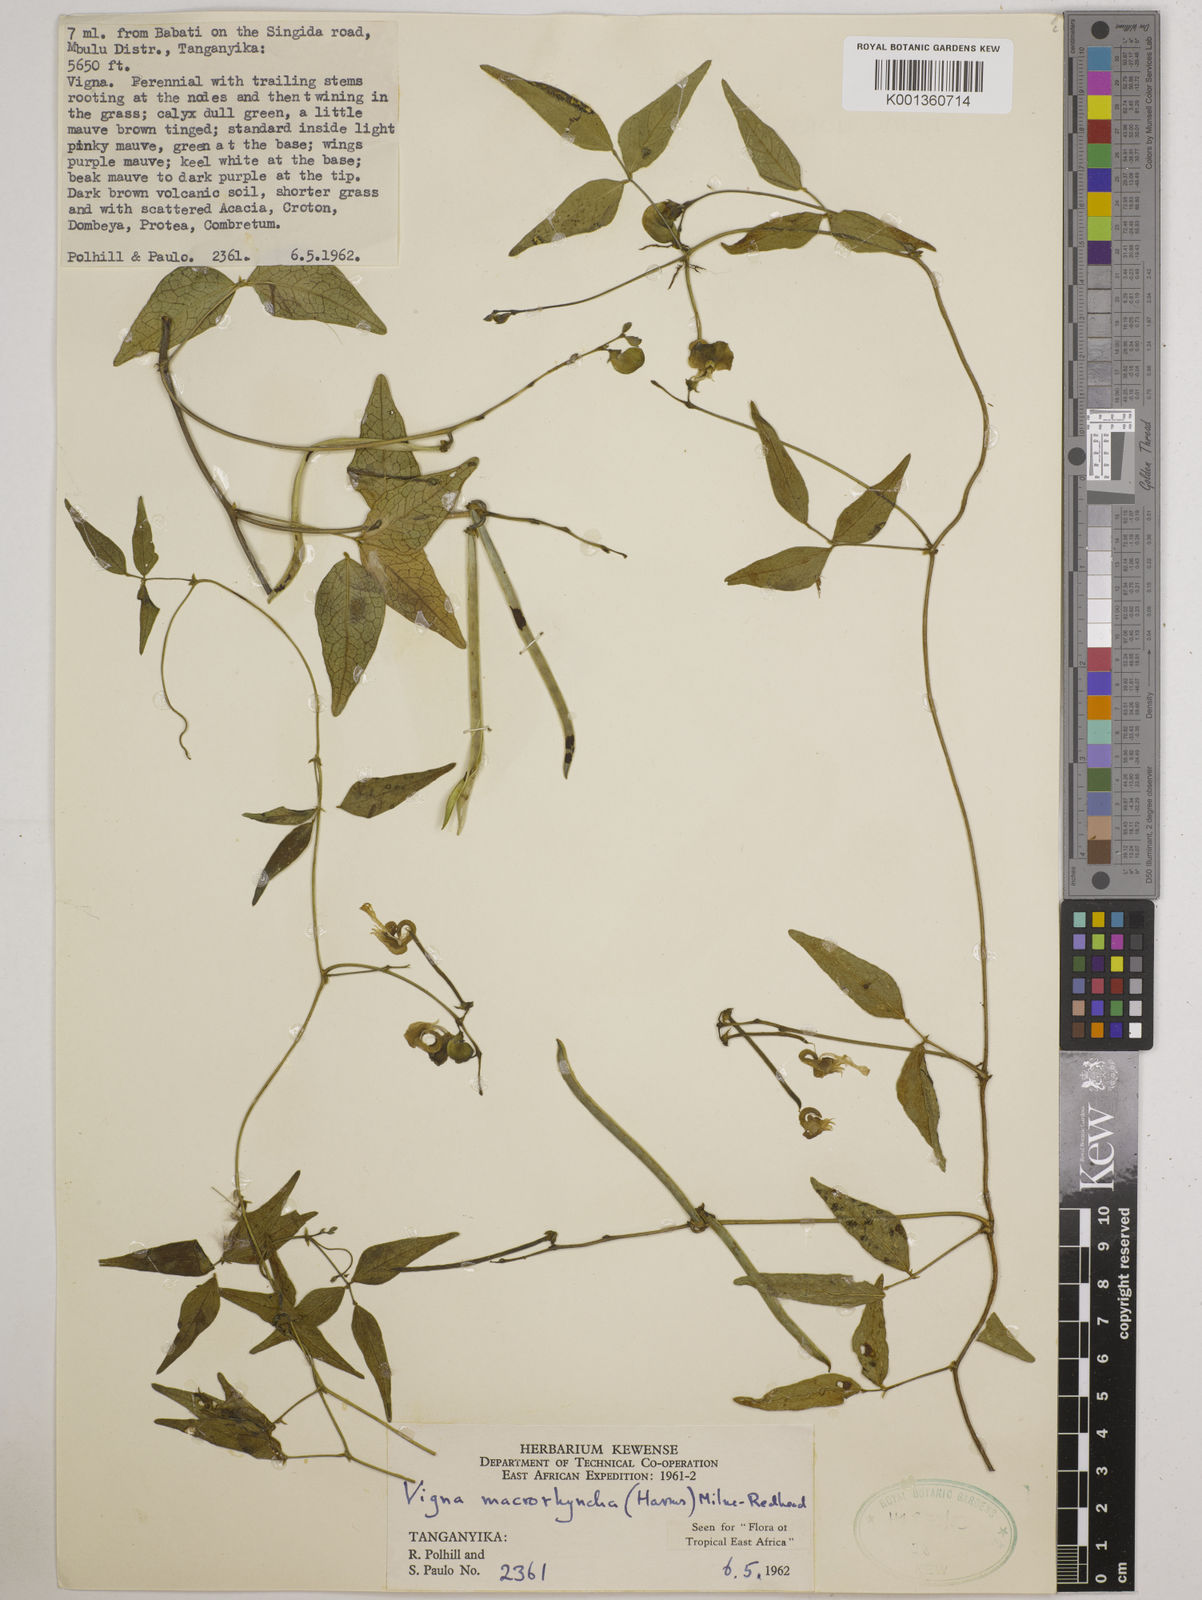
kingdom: Plantae
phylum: Tracheophyta
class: Magnoliopsida
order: Fabales
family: Fabaceae
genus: Wajira
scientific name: Wajira grahamiana
